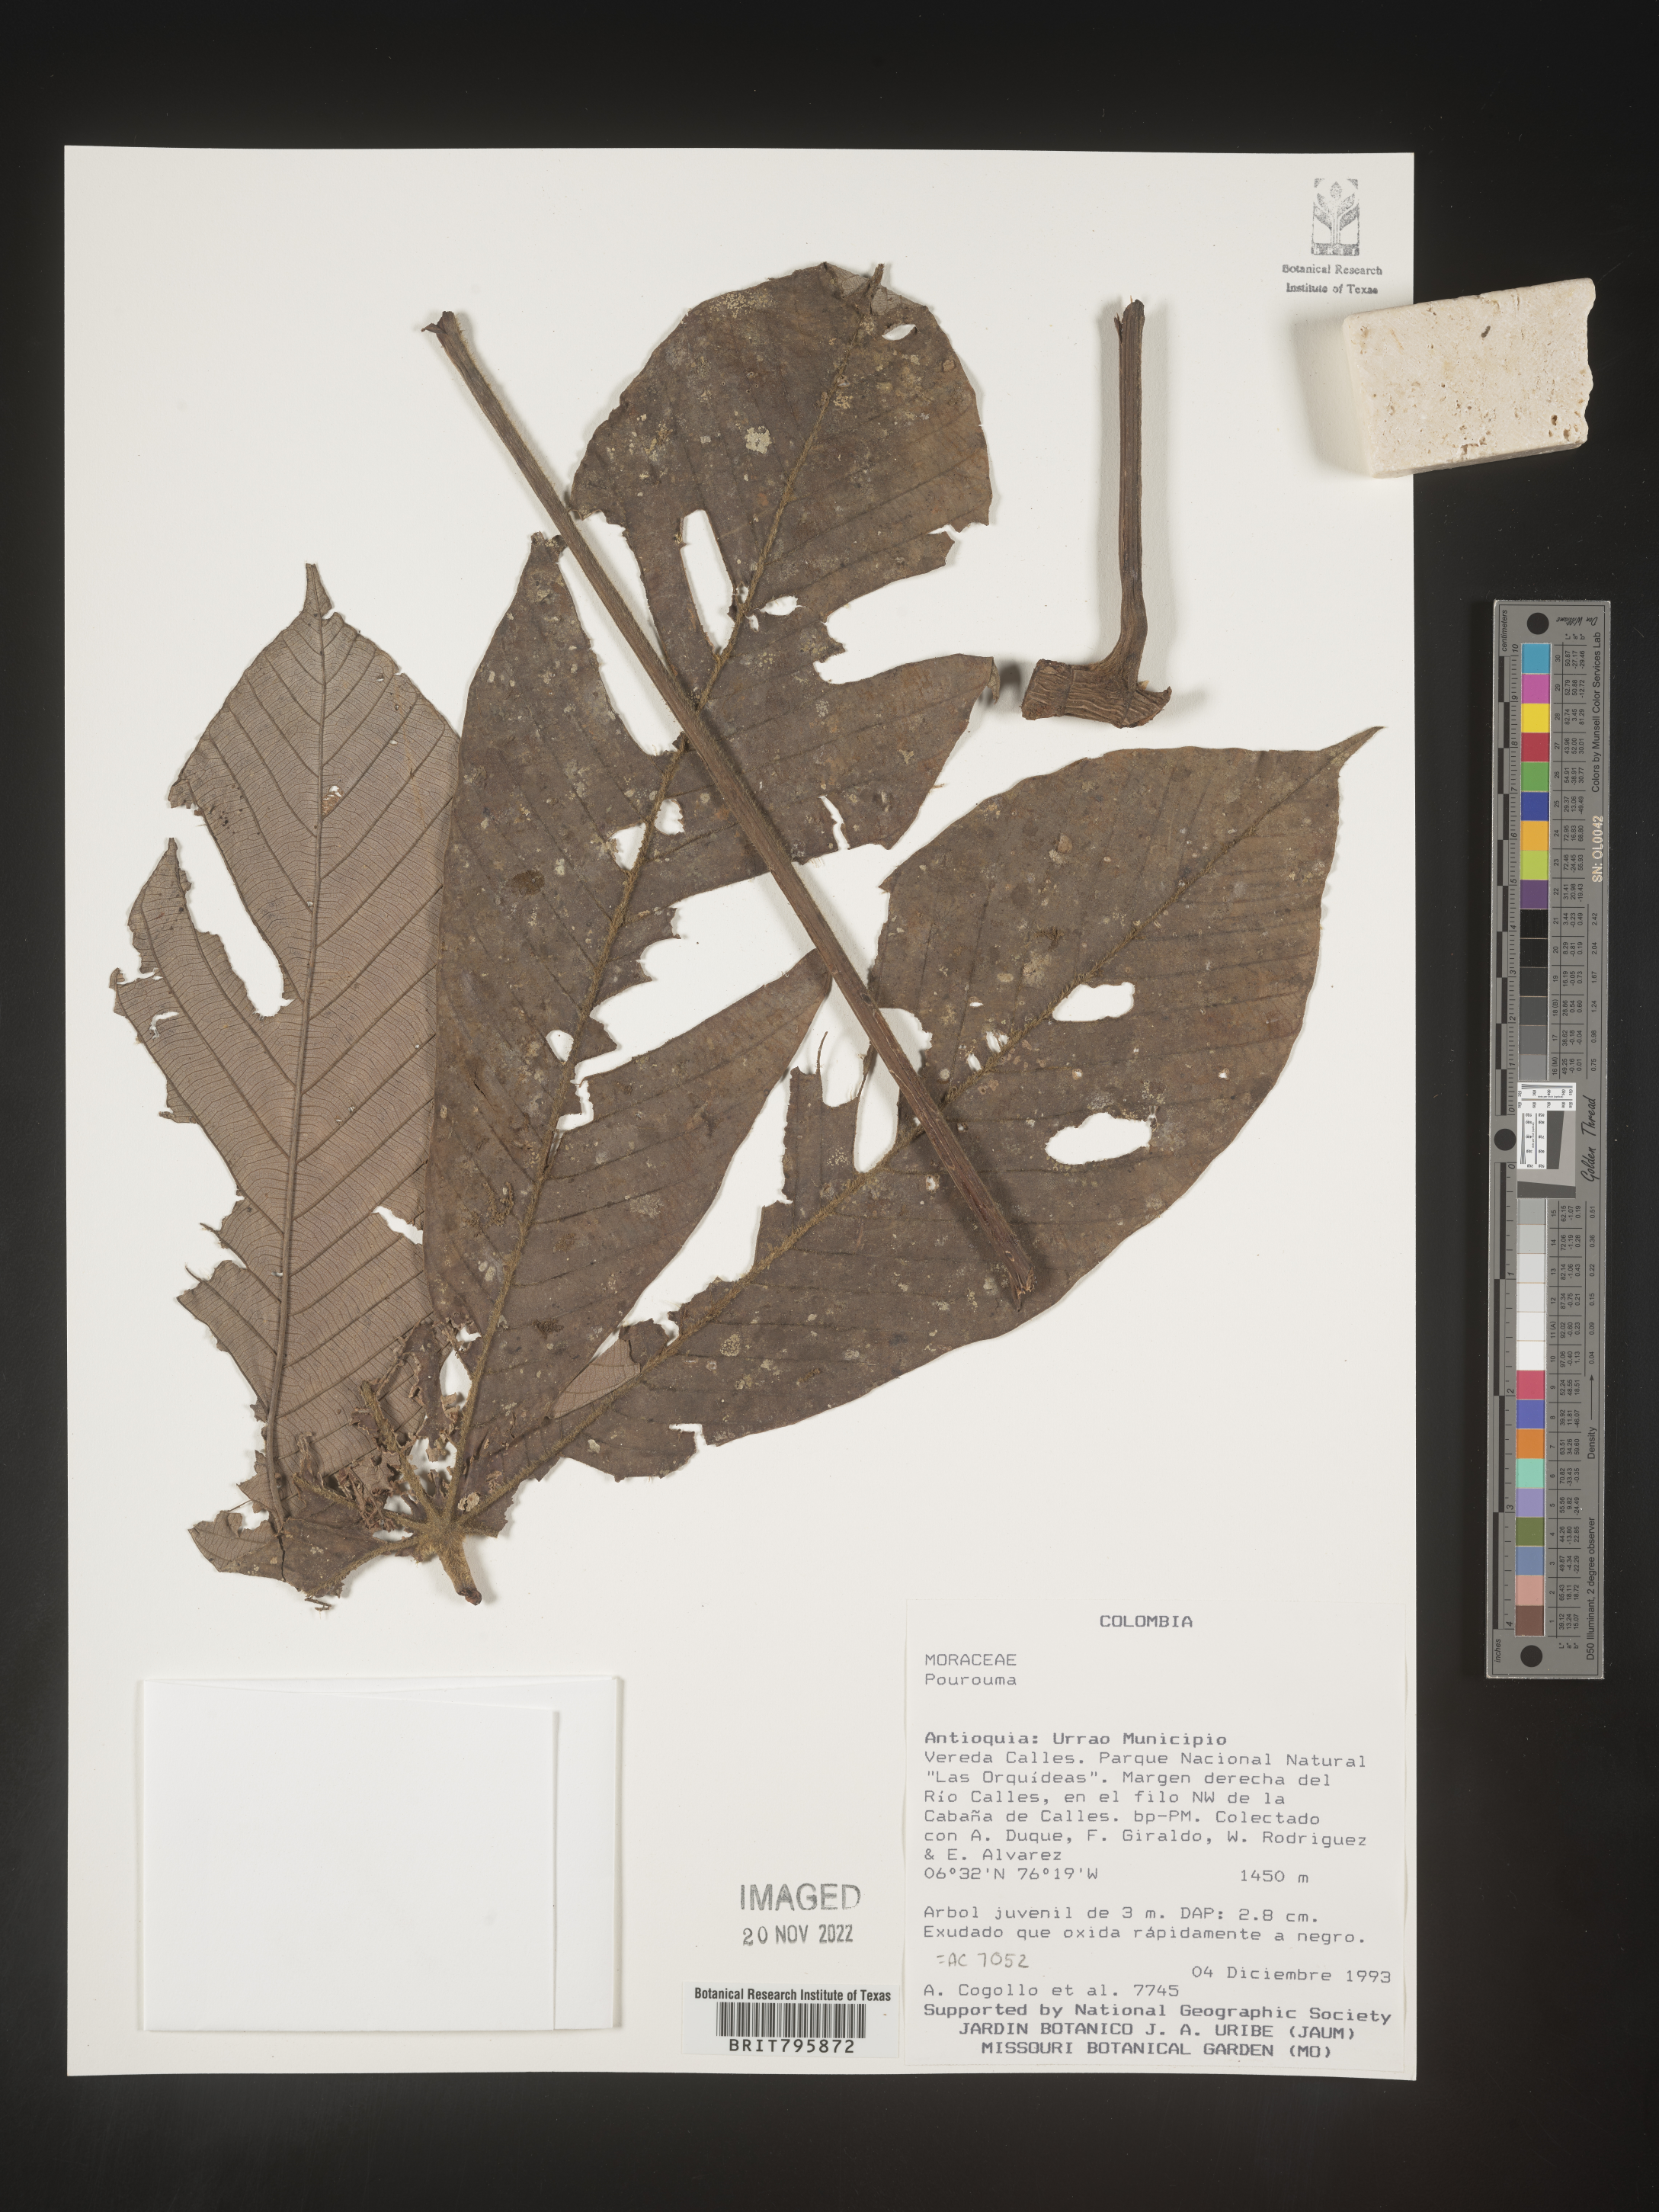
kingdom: Plantae
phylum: Tracheophyta
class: Magnoliopsida
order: Rosales
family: Urticaceae
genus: Pourouma
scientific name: Pourouma
